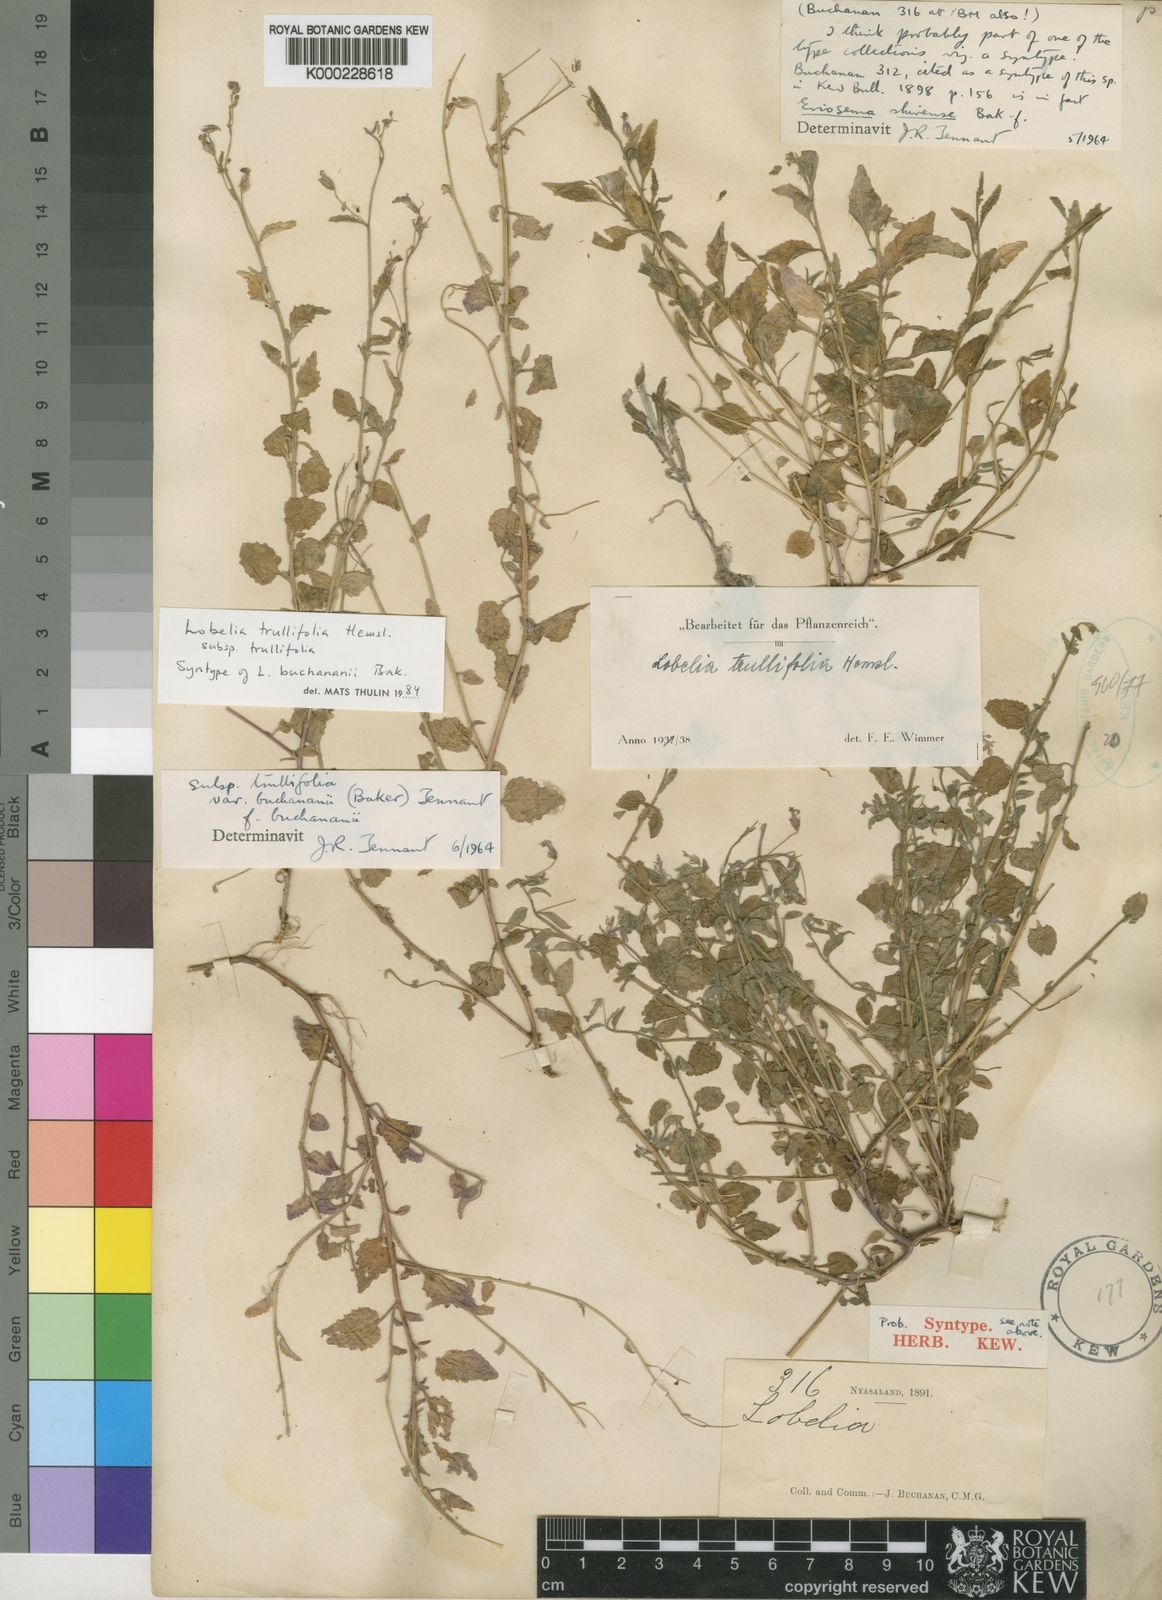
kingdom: Plantae
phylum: Tracheophyta
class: Magnoliopsida
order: Asterales
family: Campanulaceae
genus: Lobelia
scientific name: Lobelia trullifolia
